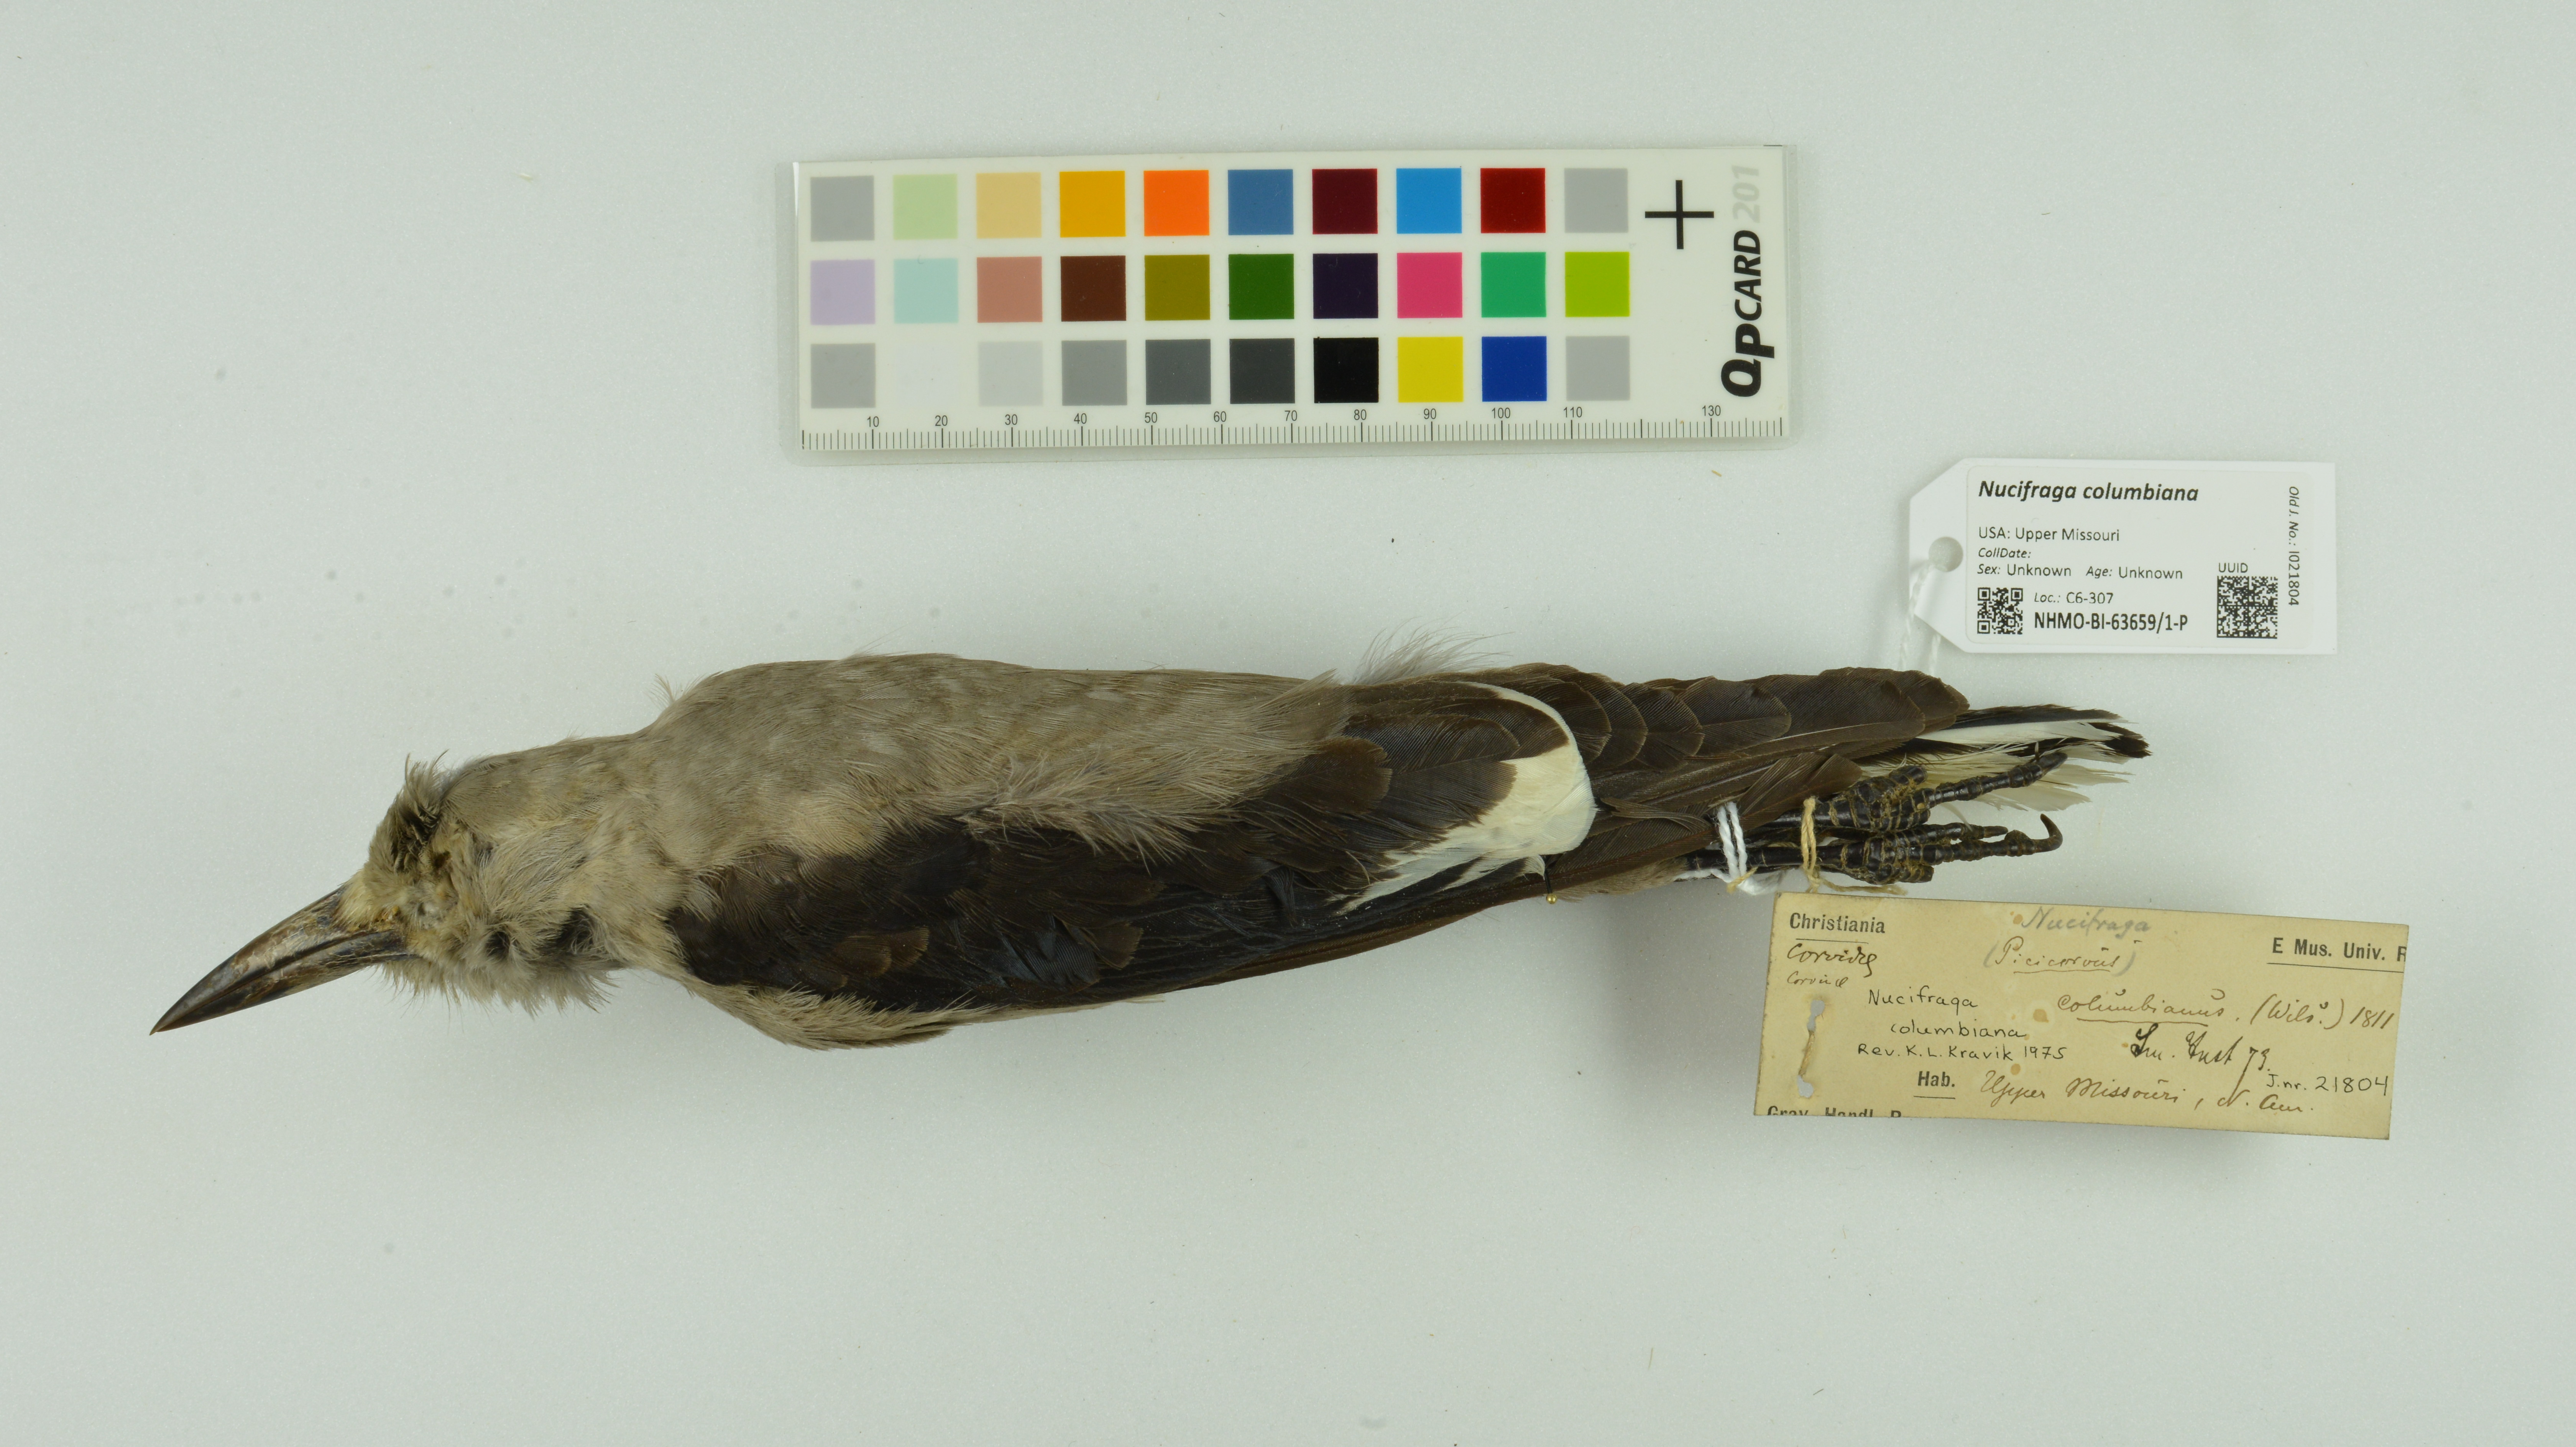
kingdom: Animalia
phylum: Chordata
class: Aves
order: Passeriformes
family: Corvidae
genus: Nucifraga
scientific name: Nucifraga columbiana
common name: Clark's nutcracker
